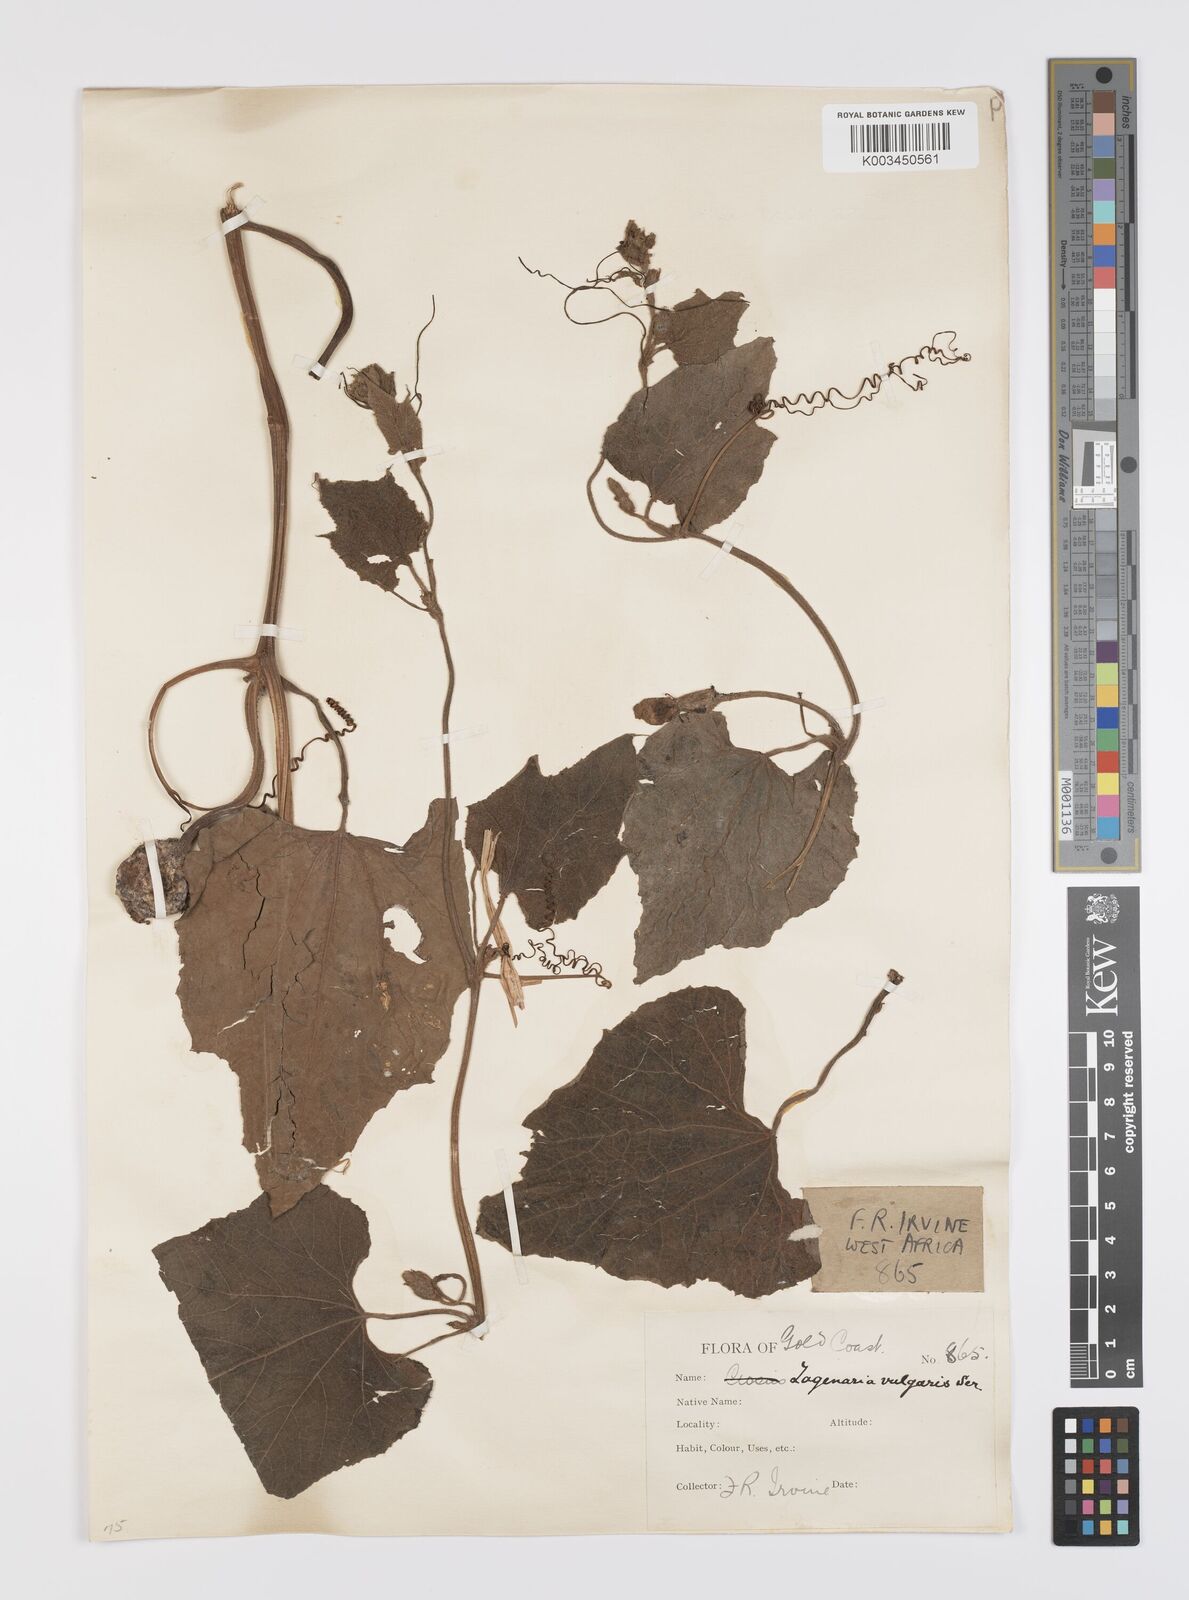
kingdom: Plantae
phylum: Tracheophyta
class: Magnoliopsida
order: Cucurbitales
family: Cucurbitaceae
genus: Lagenaria
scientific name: Lagenaria siceraria
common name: Bottle gourd
